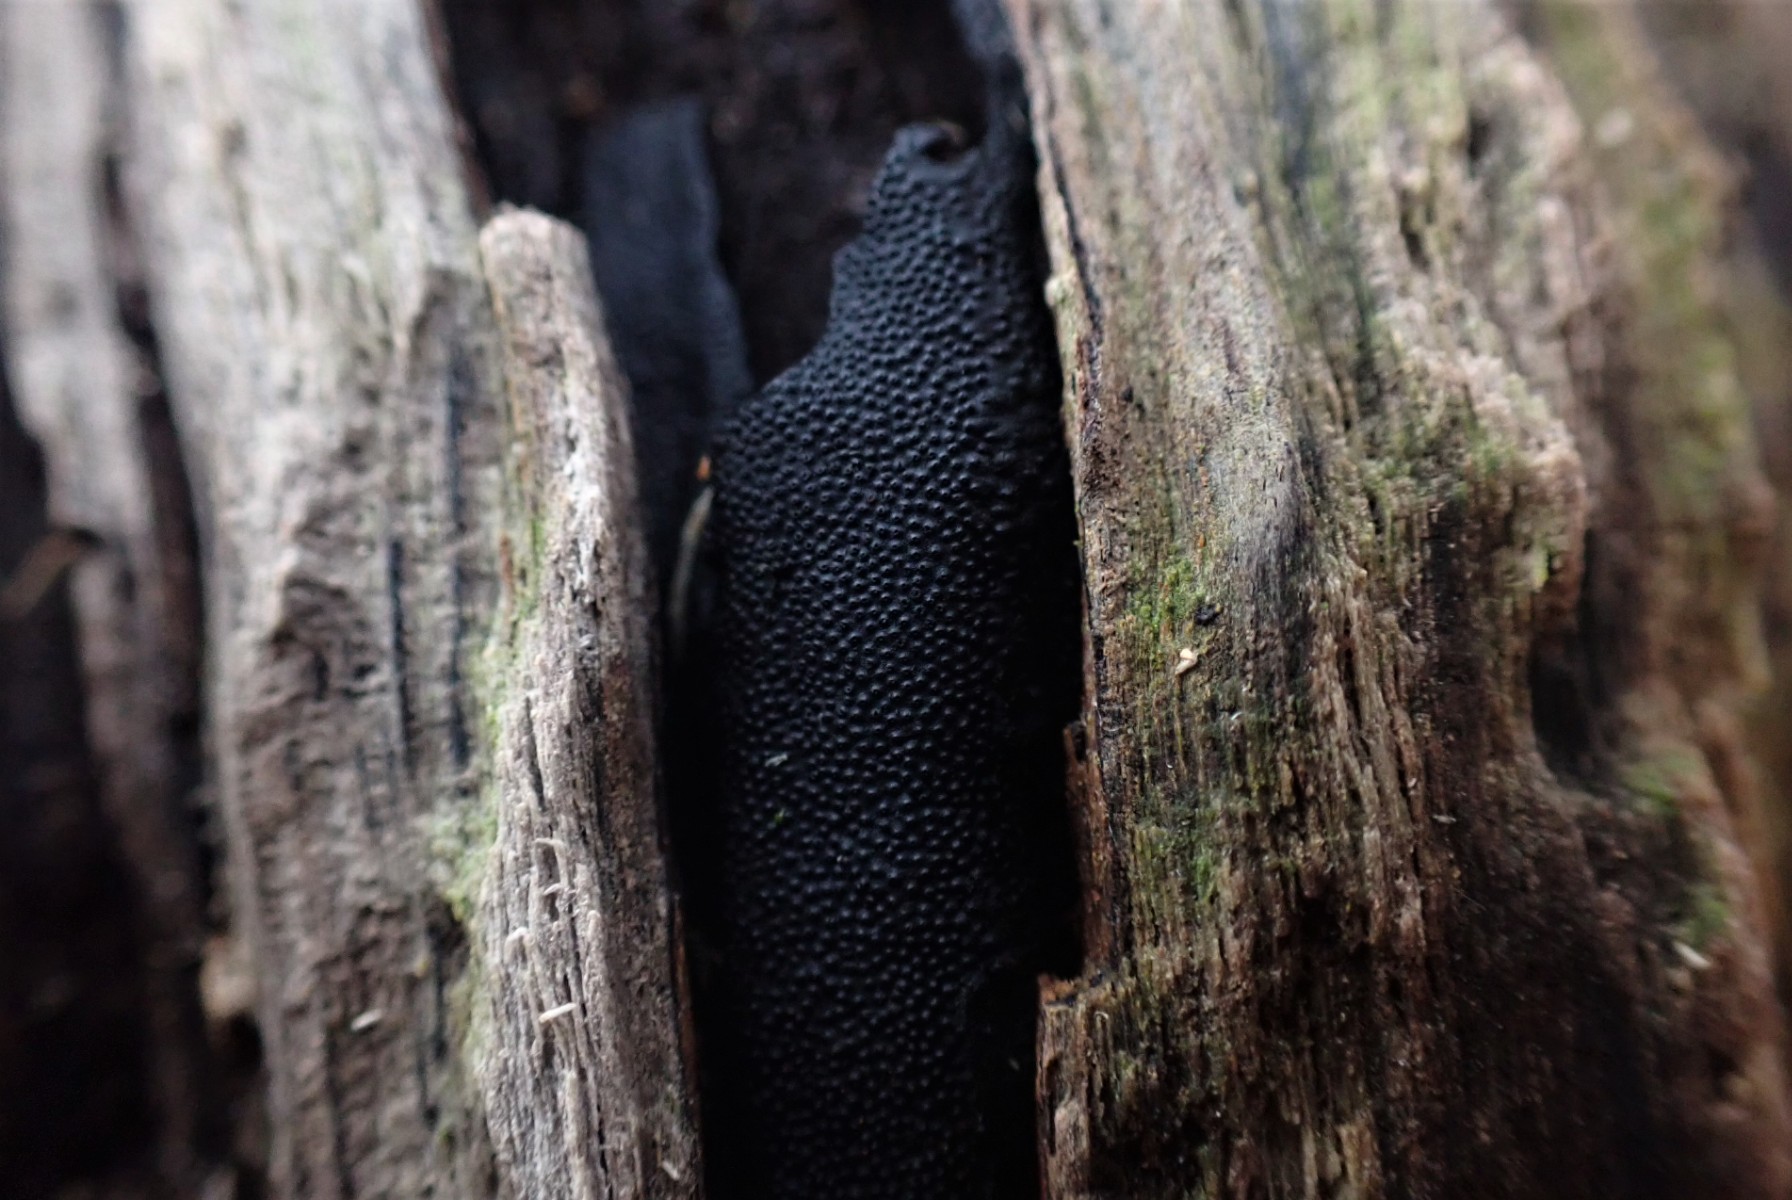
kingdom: Fungi
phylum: Ascomycota
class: Sordariomycetes
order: Boliniales
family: Boliniaceae
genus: Camarops
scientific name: Camarops polysperma
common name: elle-kulsnegl
